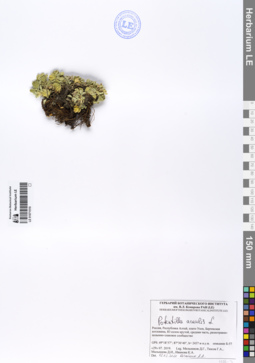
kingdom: Plantae
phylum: Tracheophyta
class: Magnoliopsida
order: Rosales
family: Rosaceae
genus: Potentilla
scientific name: Potentilla acaulis
